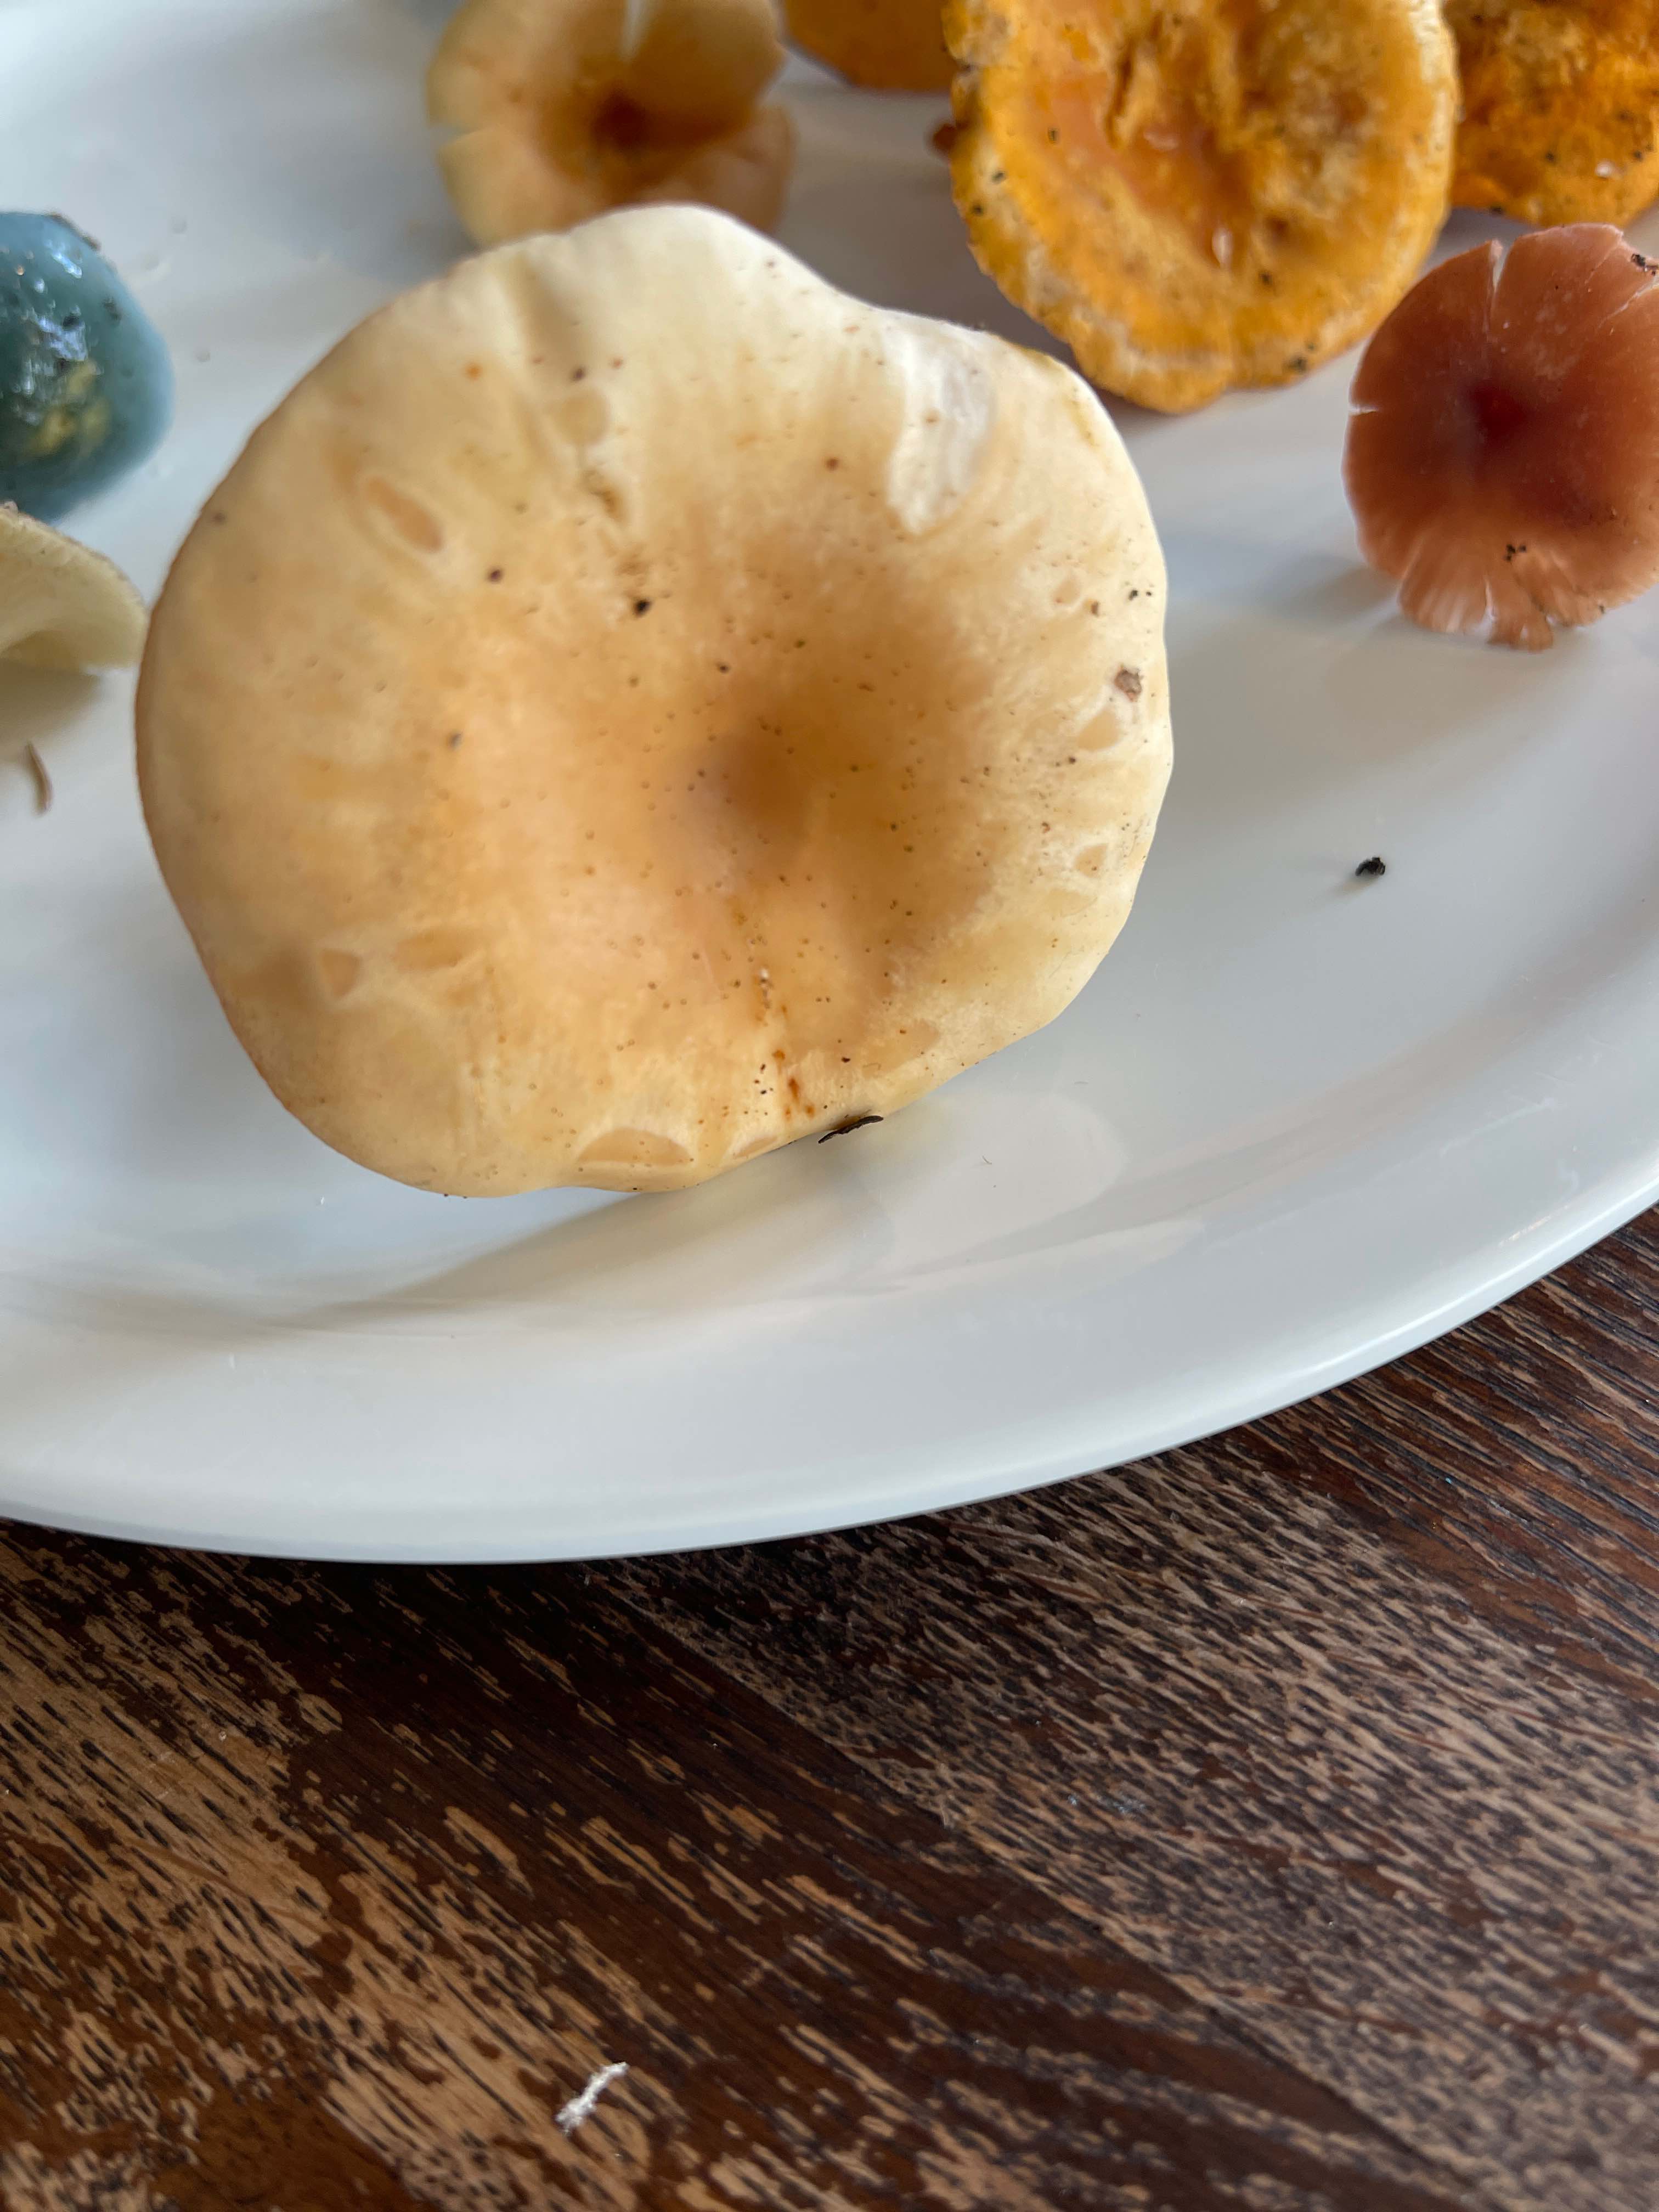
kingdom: Fungi
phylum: Basidiomycota
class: Agaricomycetes
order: Boletales
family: Hygrophoropsidaceae
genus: Hygrophoropsis
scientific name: Hygrophoropsis aurantiaca
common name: almindelig orangekantarel
